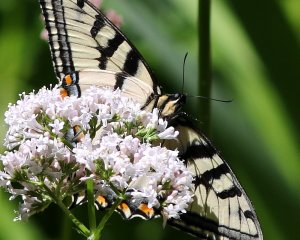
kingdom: Animalia
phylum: Arthropoda
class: Insecta
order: Lepidoptera
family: Papilionidae
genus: Pterourus
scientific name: Pterourus glaucus
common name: Eastern Tiger Swallowtail
